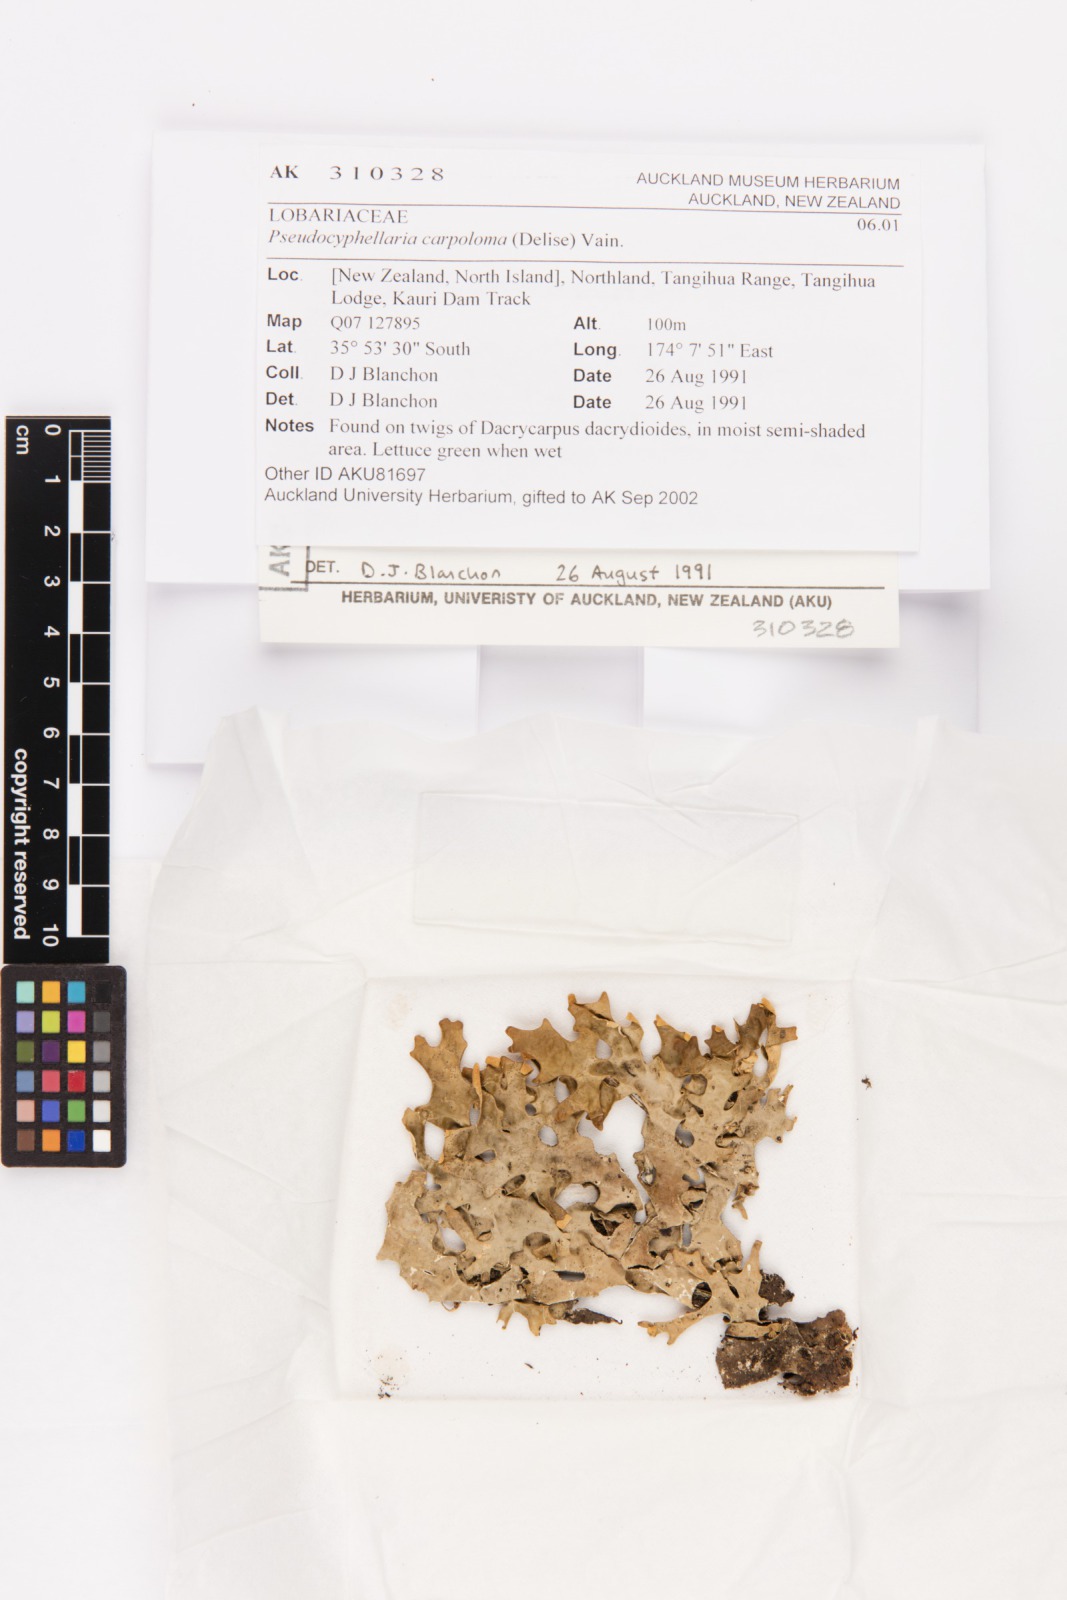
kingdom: Fungi
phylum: Ascomycota
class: Lecanoromycetes
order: Peltigerales
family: Lobariaceae
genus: Pseudocyphellaria
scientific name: Pseudocyphellaria carpoloma
